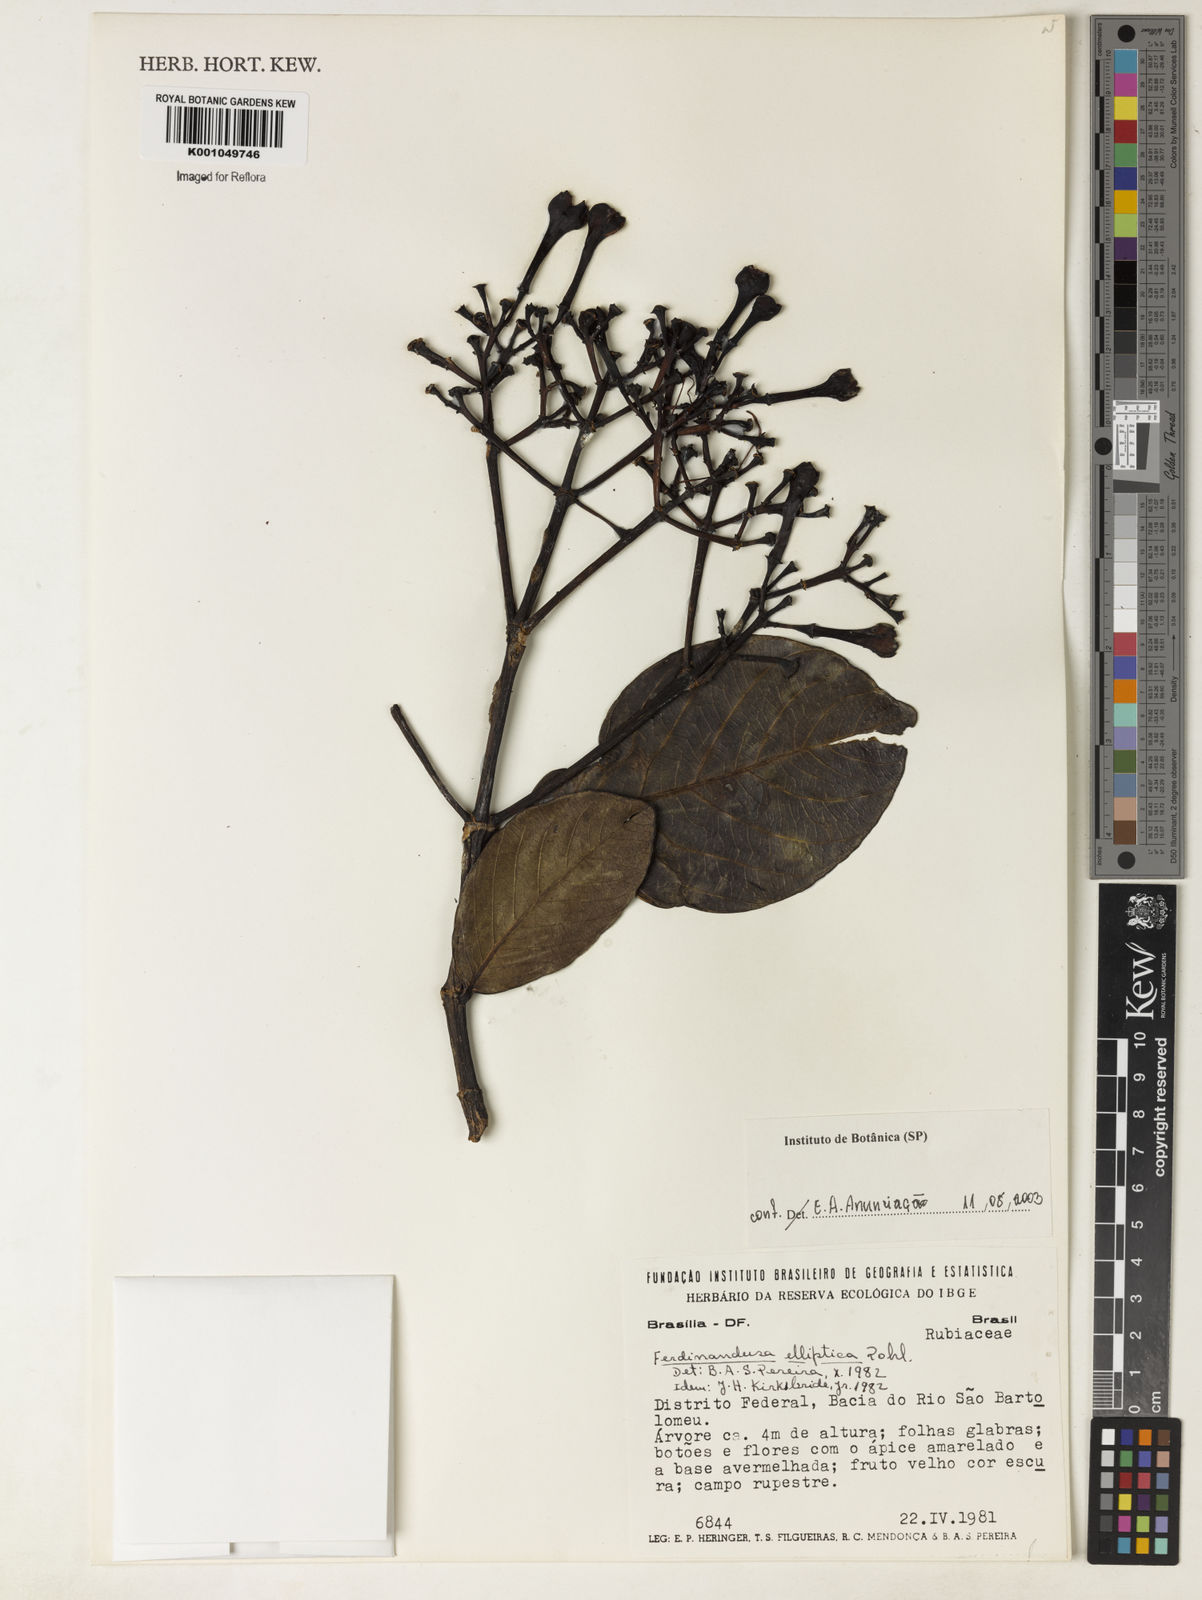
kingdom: Plantae
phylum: Tracheophyta
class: Magnoliopsida
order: Gentianales
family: Rubiaceae
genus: Ferdinandusa
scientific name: Ferdinandusa elliptica
